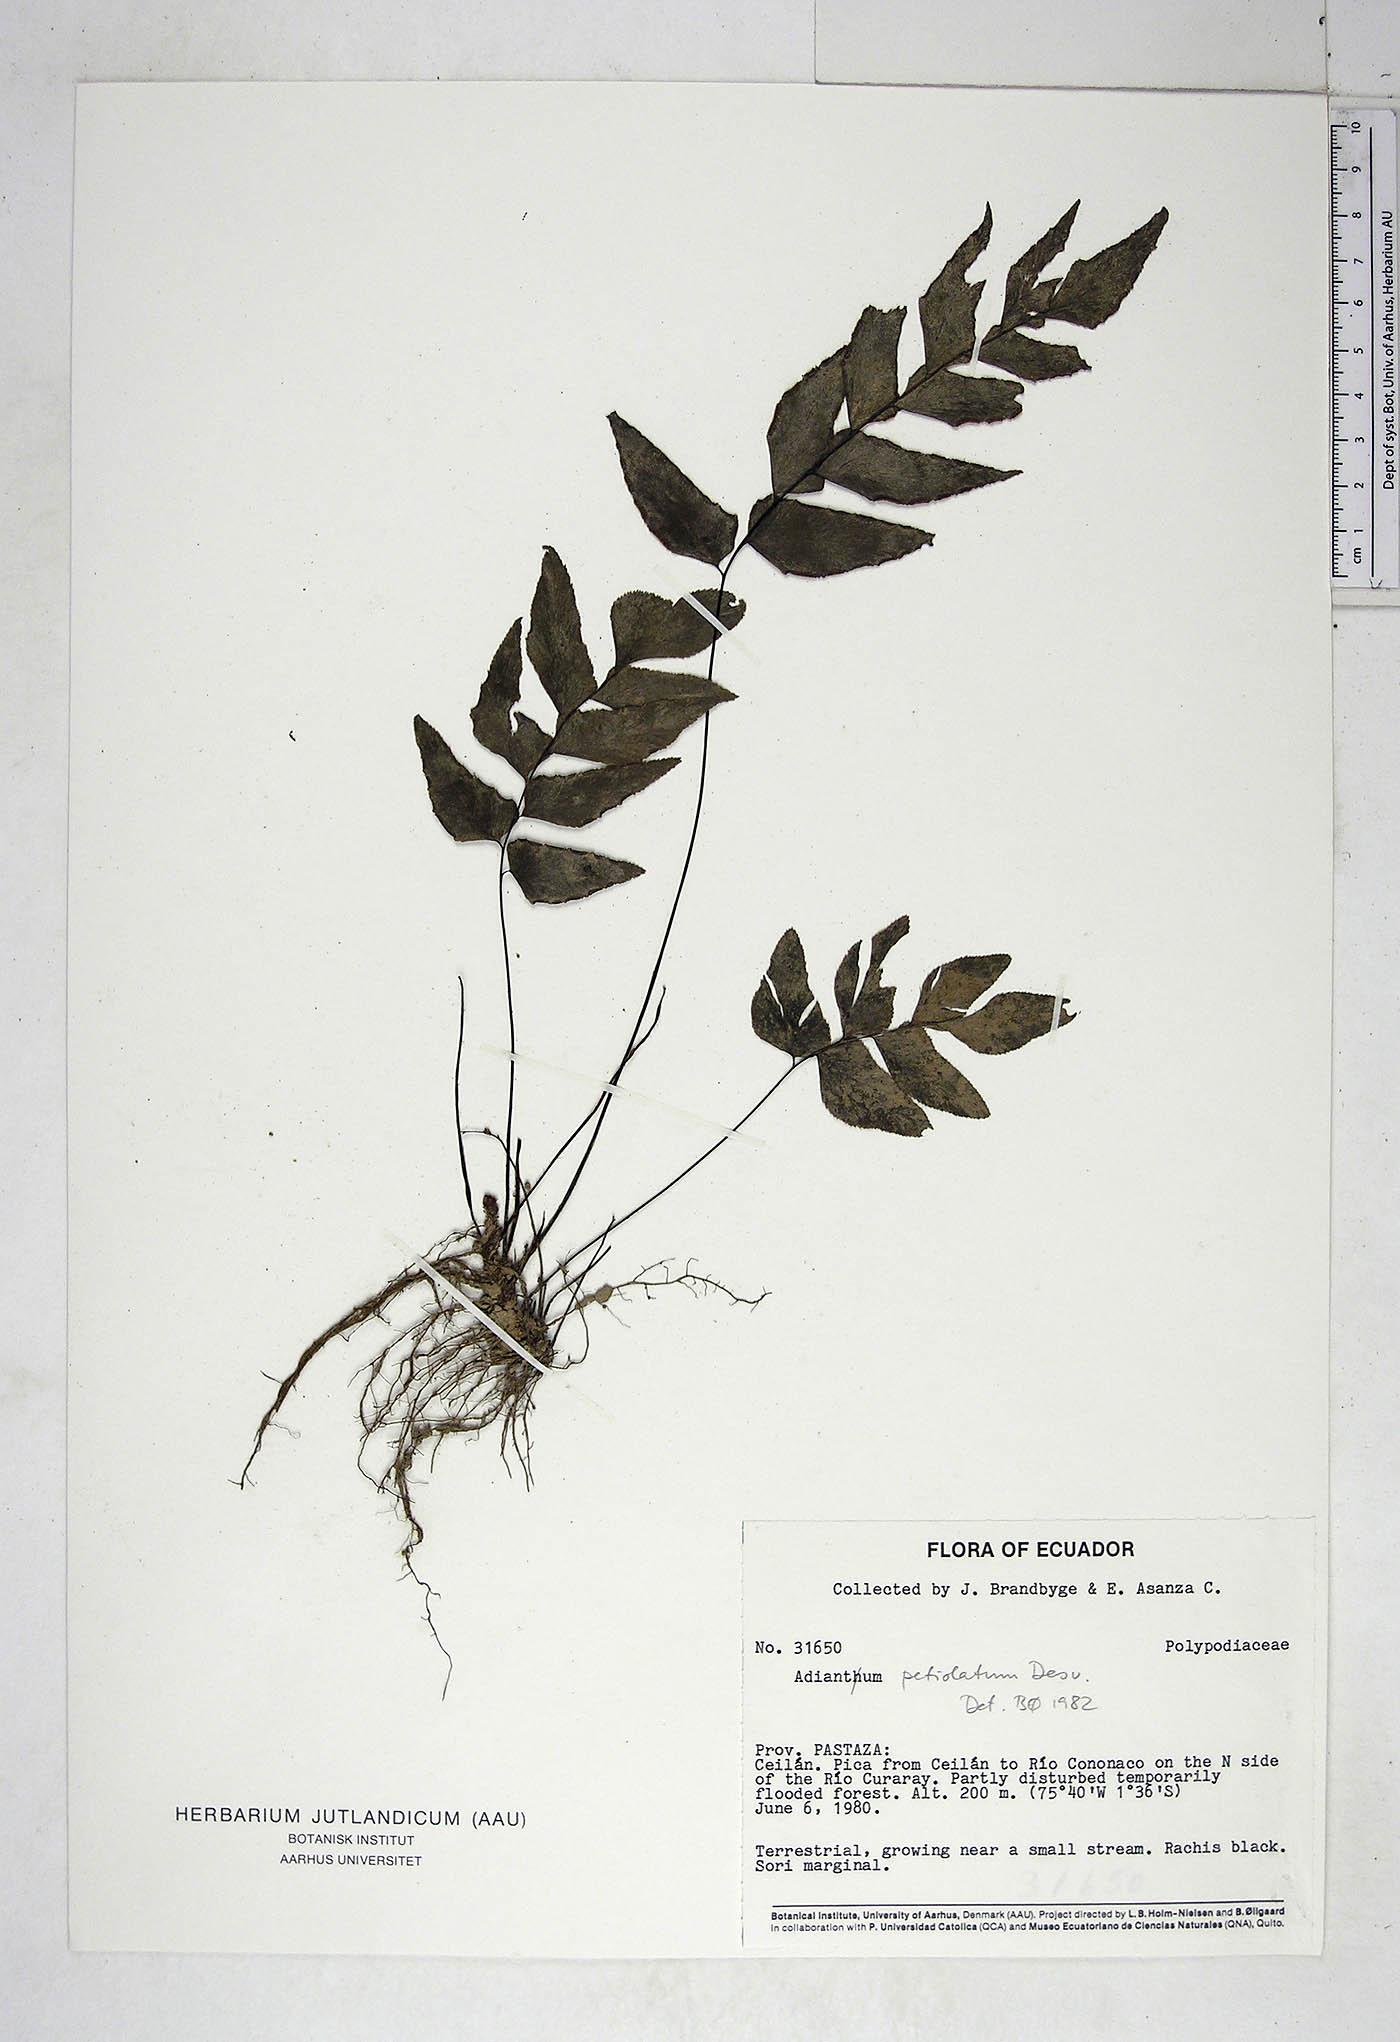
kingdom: Plantae
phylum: Tracheophyta
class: Polypodiopsida
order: Polypodiales
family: Pteridaceae
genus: Adiantum
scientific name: Adiantum petiolatum
